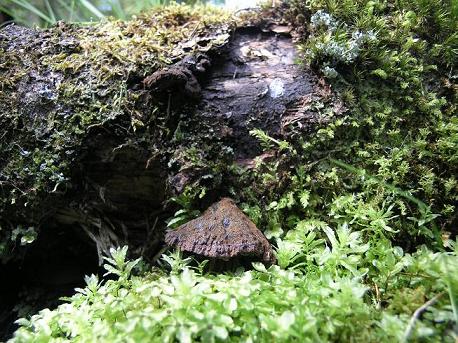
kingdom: Fungi
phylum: Basidiomycota
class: Agaricomycetes
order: Polyporales
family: Ischnodermataceae
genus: Ischnoderma
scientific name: Ischnoderma benzoinum
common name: gran-tjæreporesvamp
